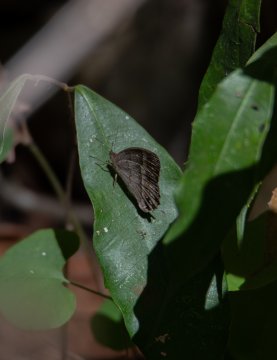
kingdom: Animalia
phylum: Arthropoda
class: Insecta
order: Lepidoptera
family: Nymphalidae
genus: Euptychia
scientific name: Euptychia Cissia similis
